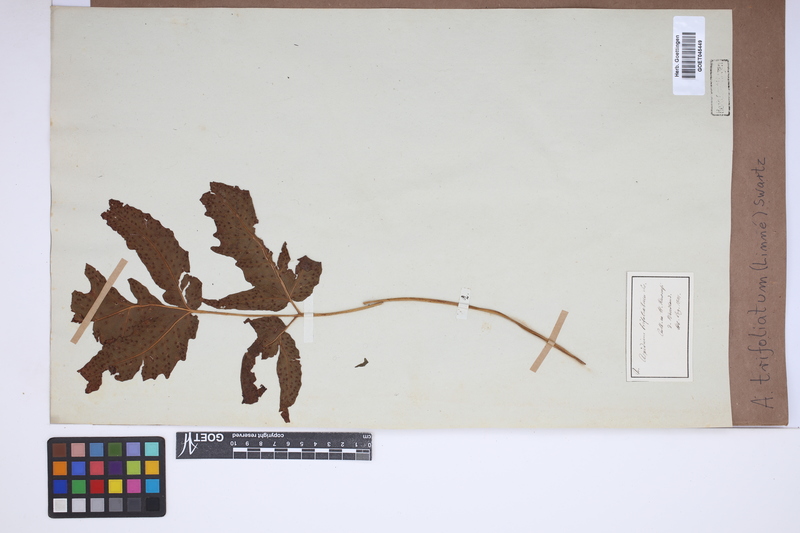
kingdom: Plantae
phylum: Tracheophyta
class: Polypodiopsida
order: Polypodiales
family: Tectariaceae
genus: Tectaria
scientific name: Tectaria trifoliata
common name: Threeleaf halberd fern
